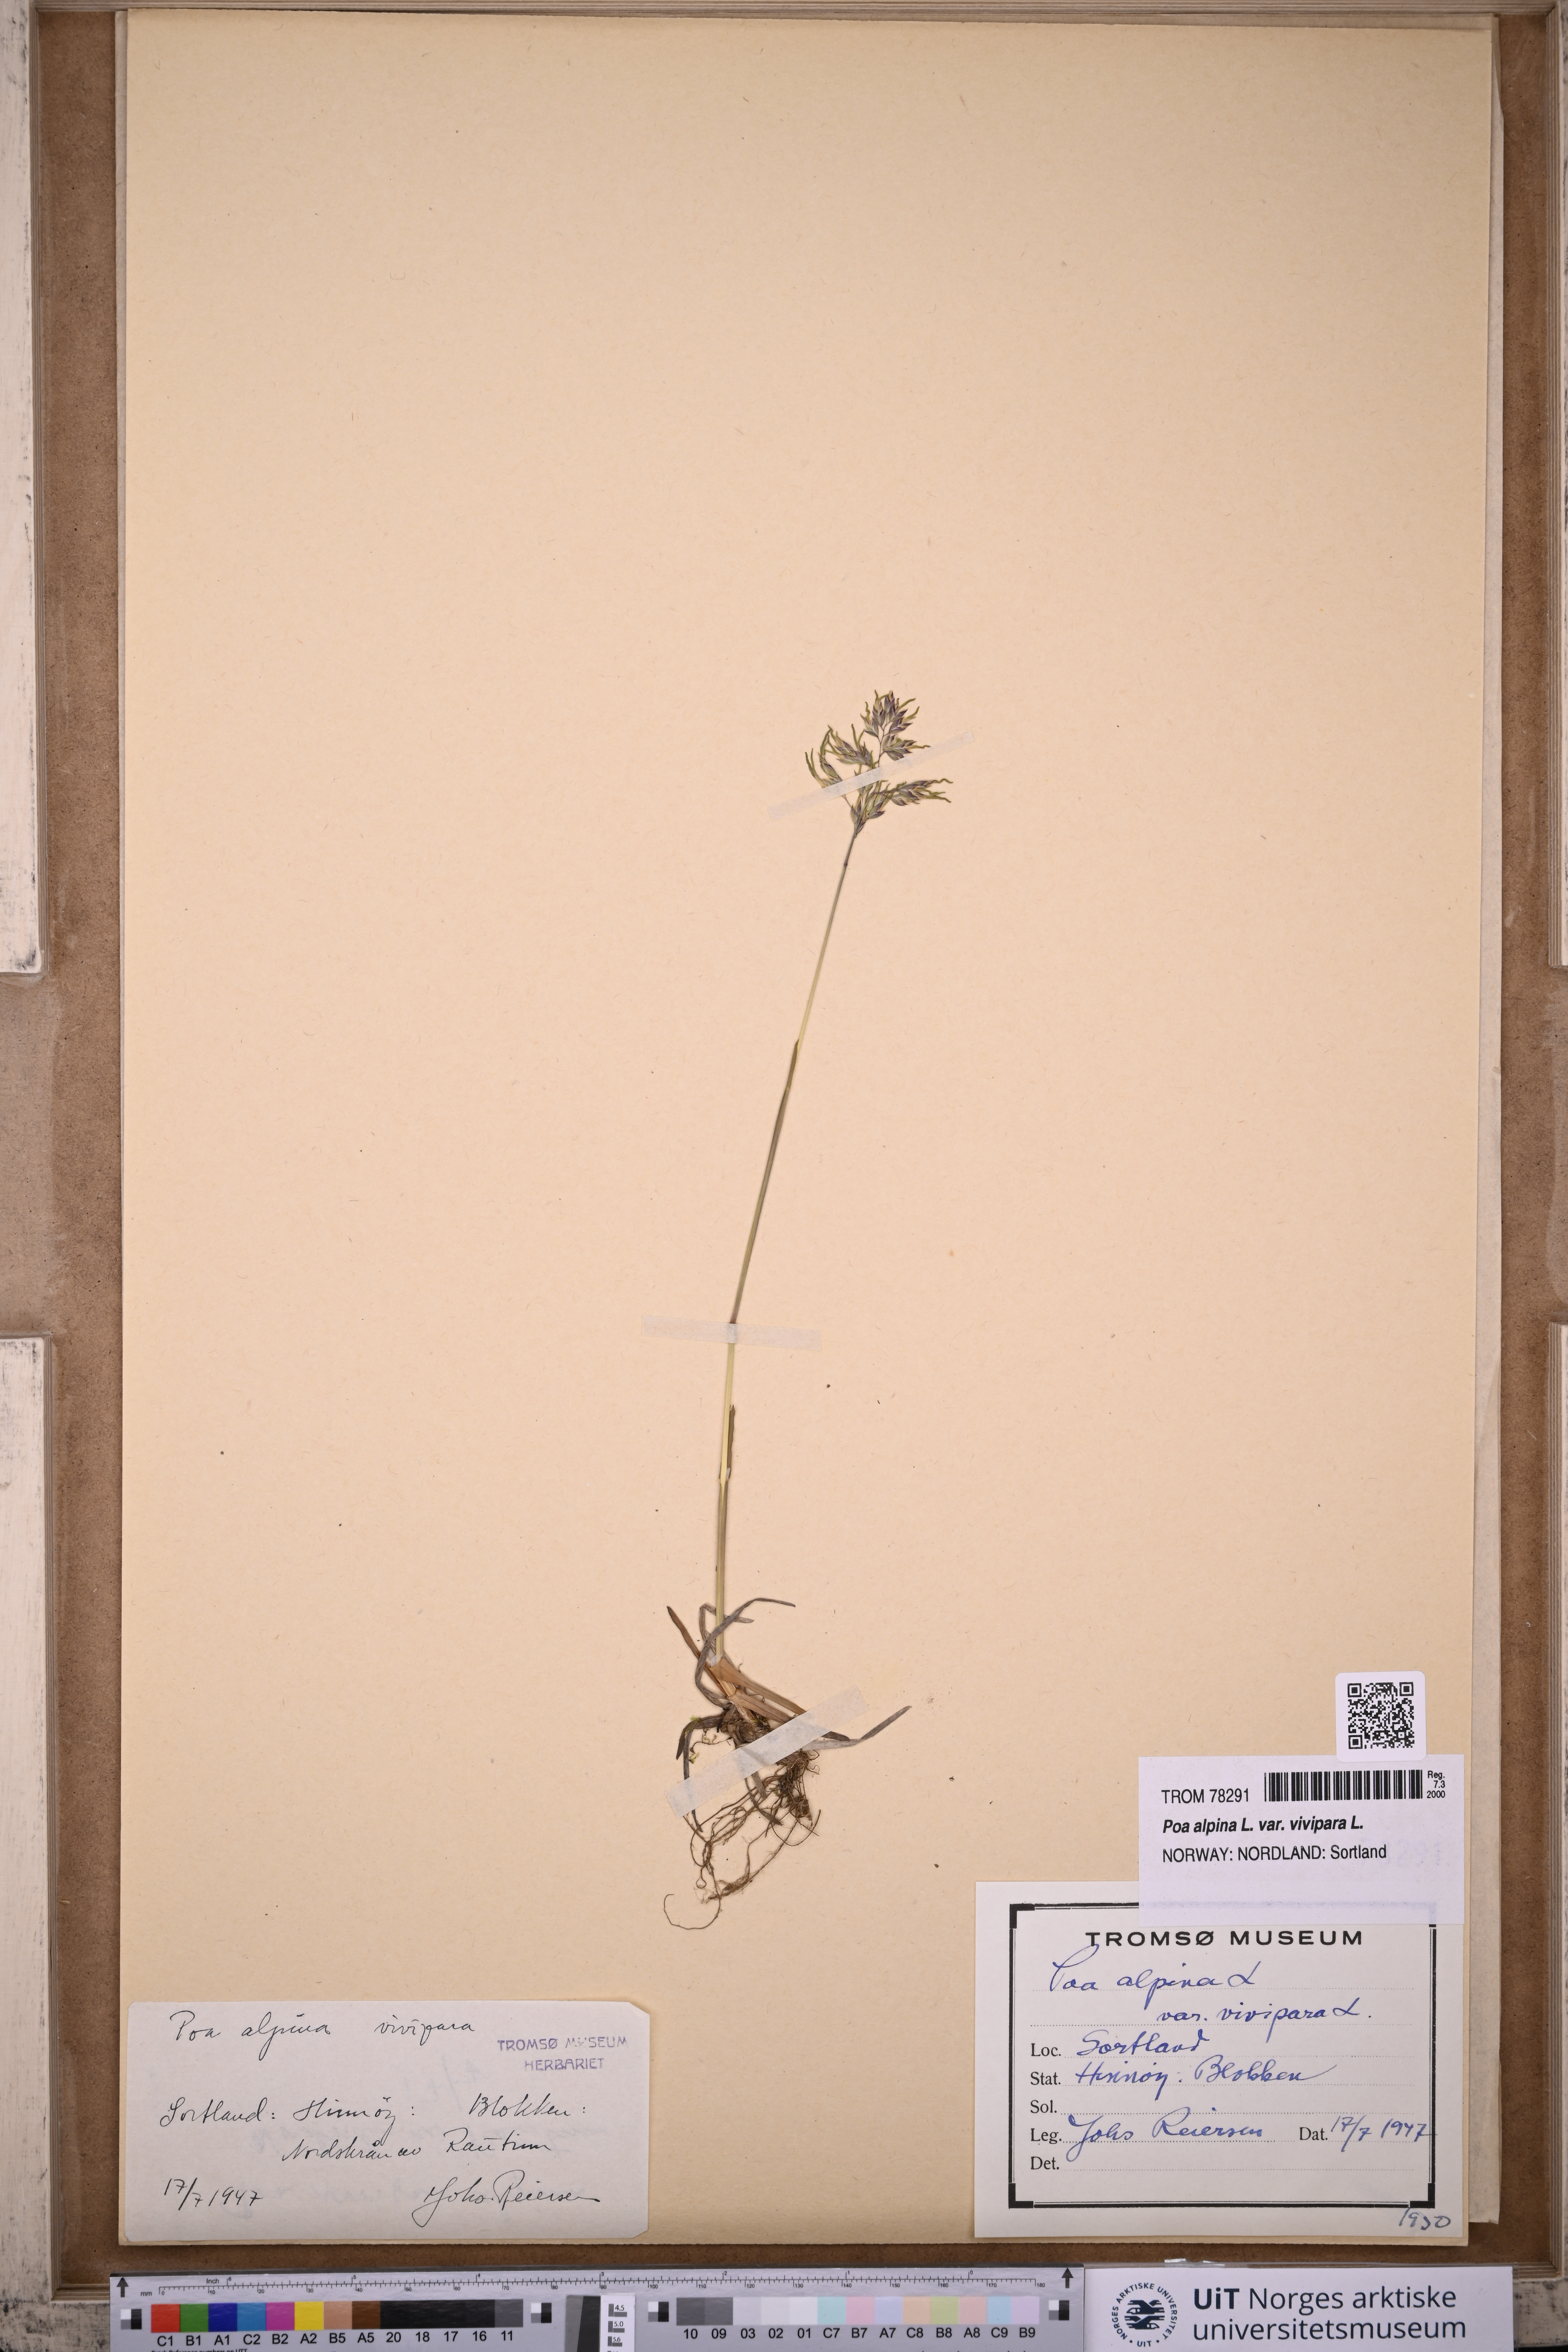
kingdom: Plantae
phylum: Tracheophyta
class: Liliopsida
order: Poales
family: Poaceae
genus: Poa
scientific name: Poa alpina
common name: Alpine bluegrass
